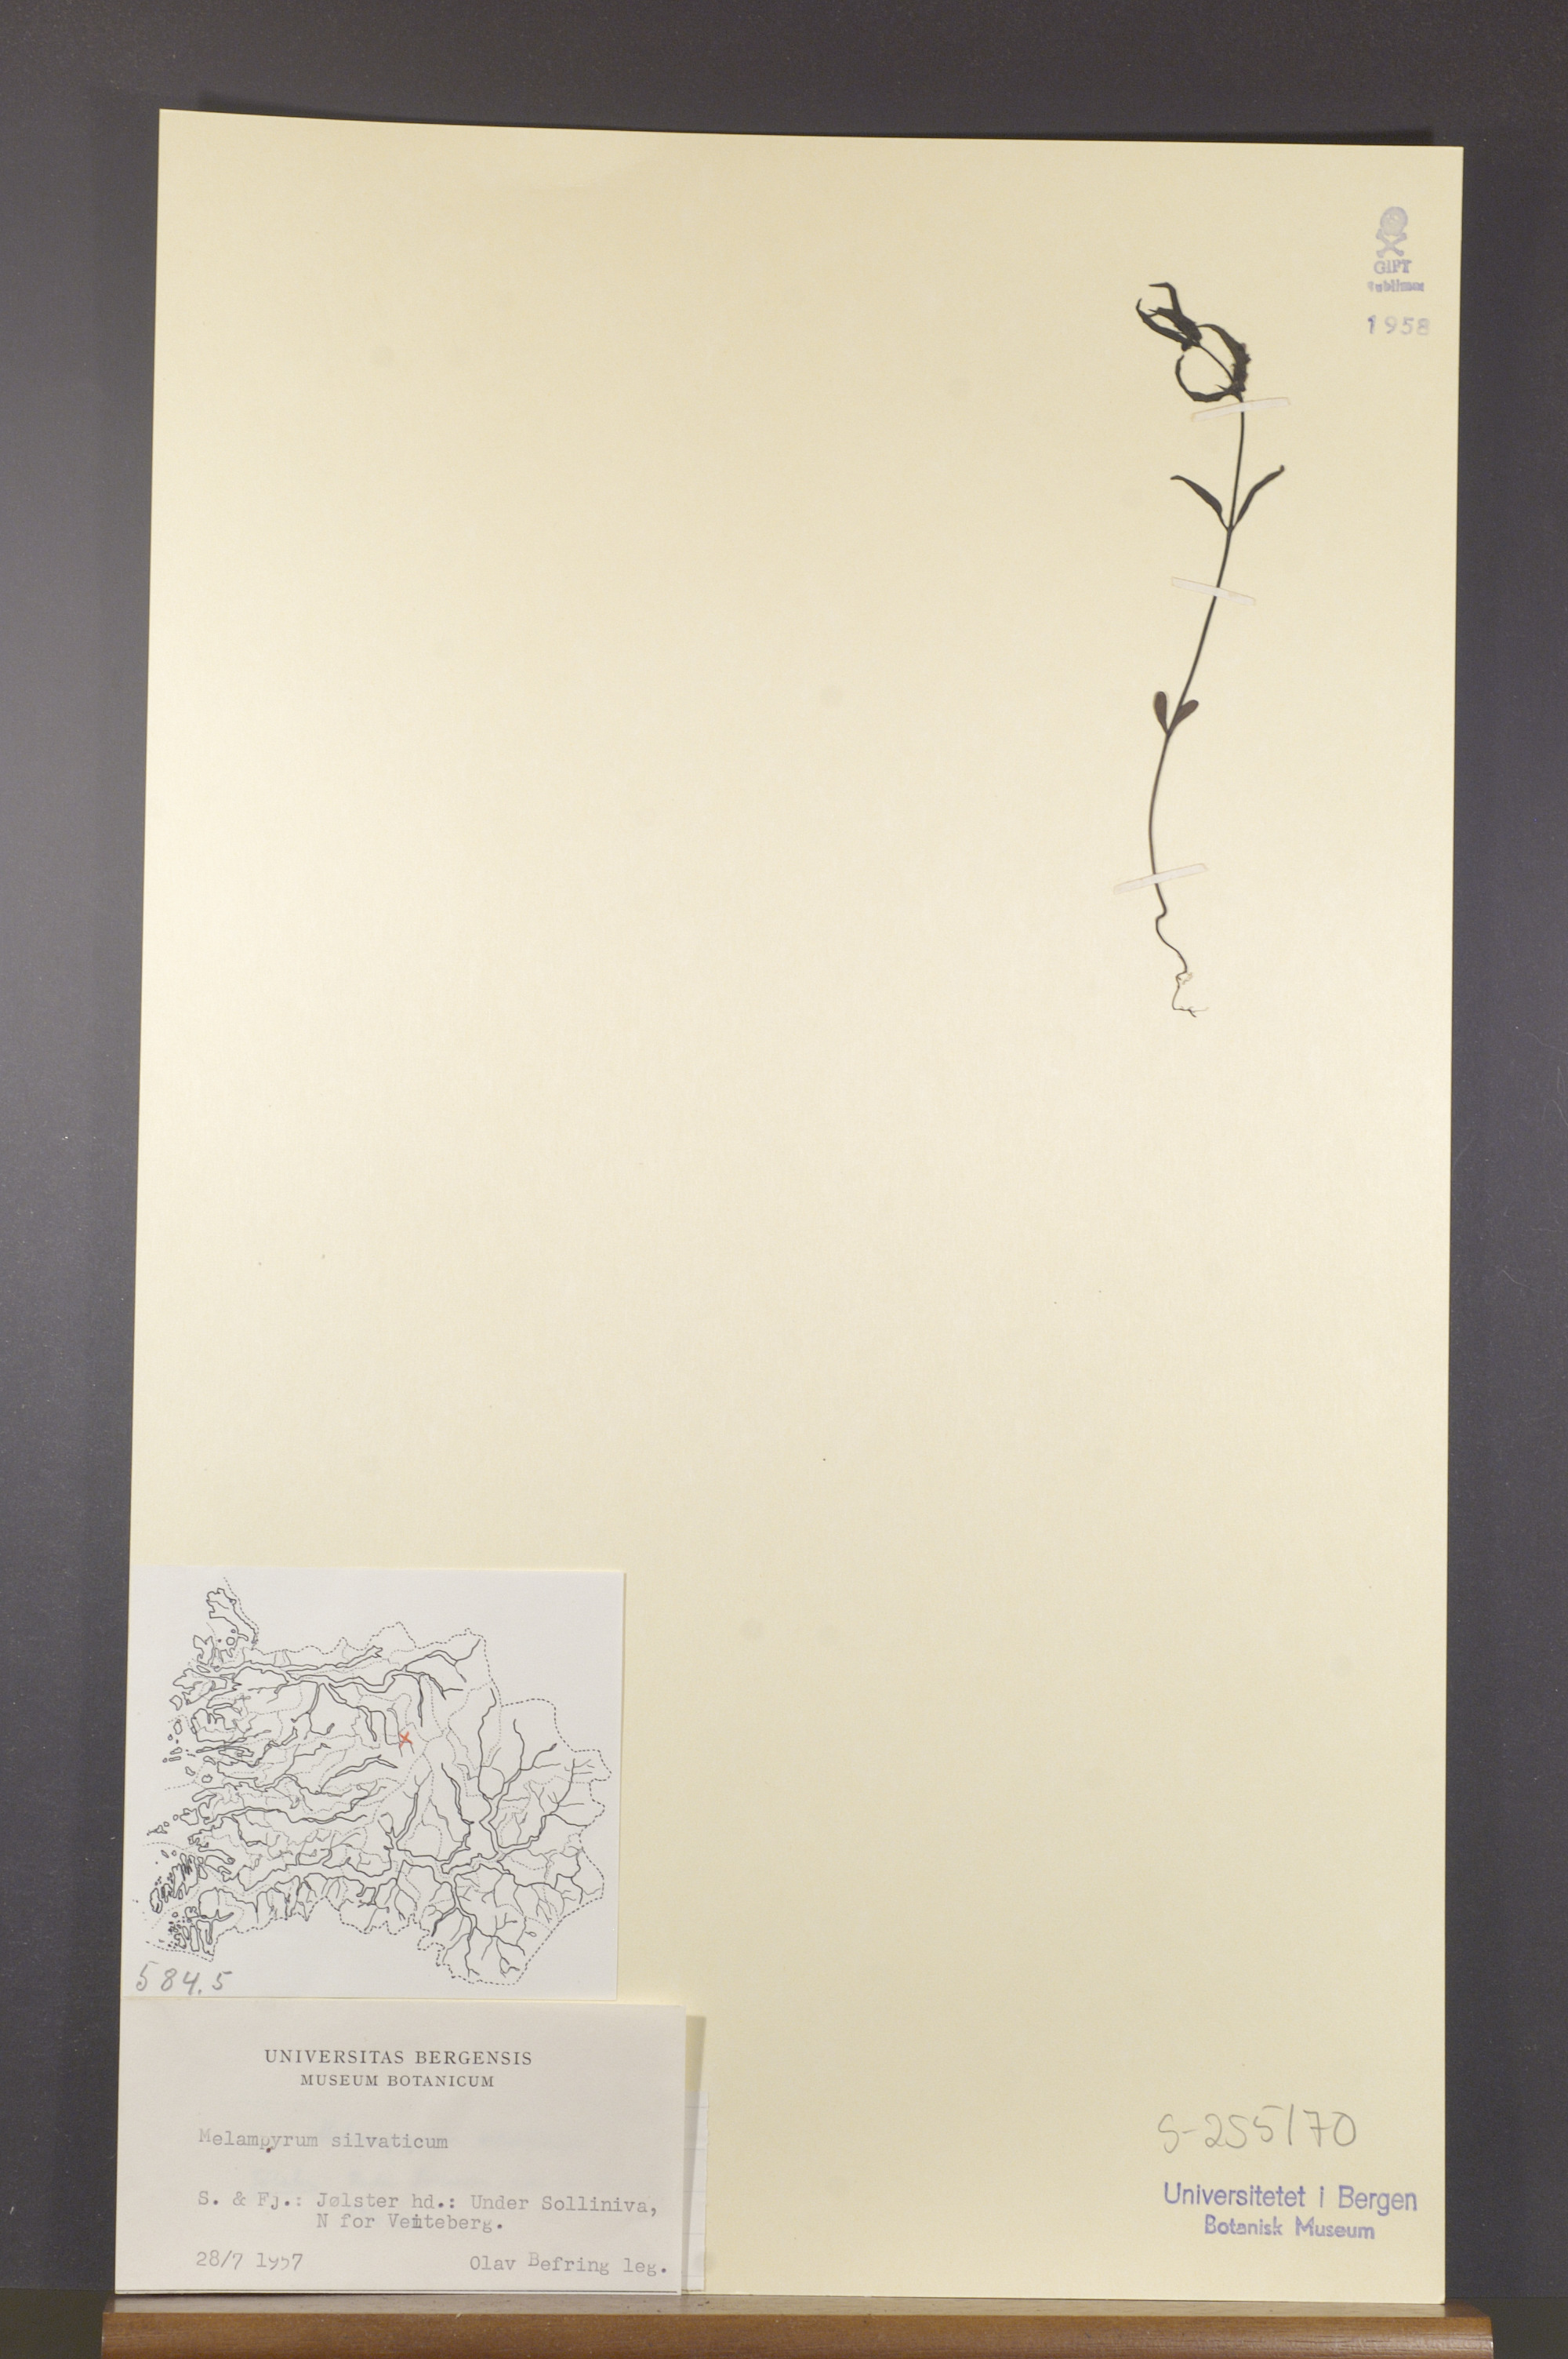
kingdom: Plantae
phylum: Tracheophyta
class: Magnoliopsida
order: Lamiales
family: Orobanchaceae
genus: Melampyrum
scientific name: Melampyrum sylvaticum
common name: Small cow-wheat
